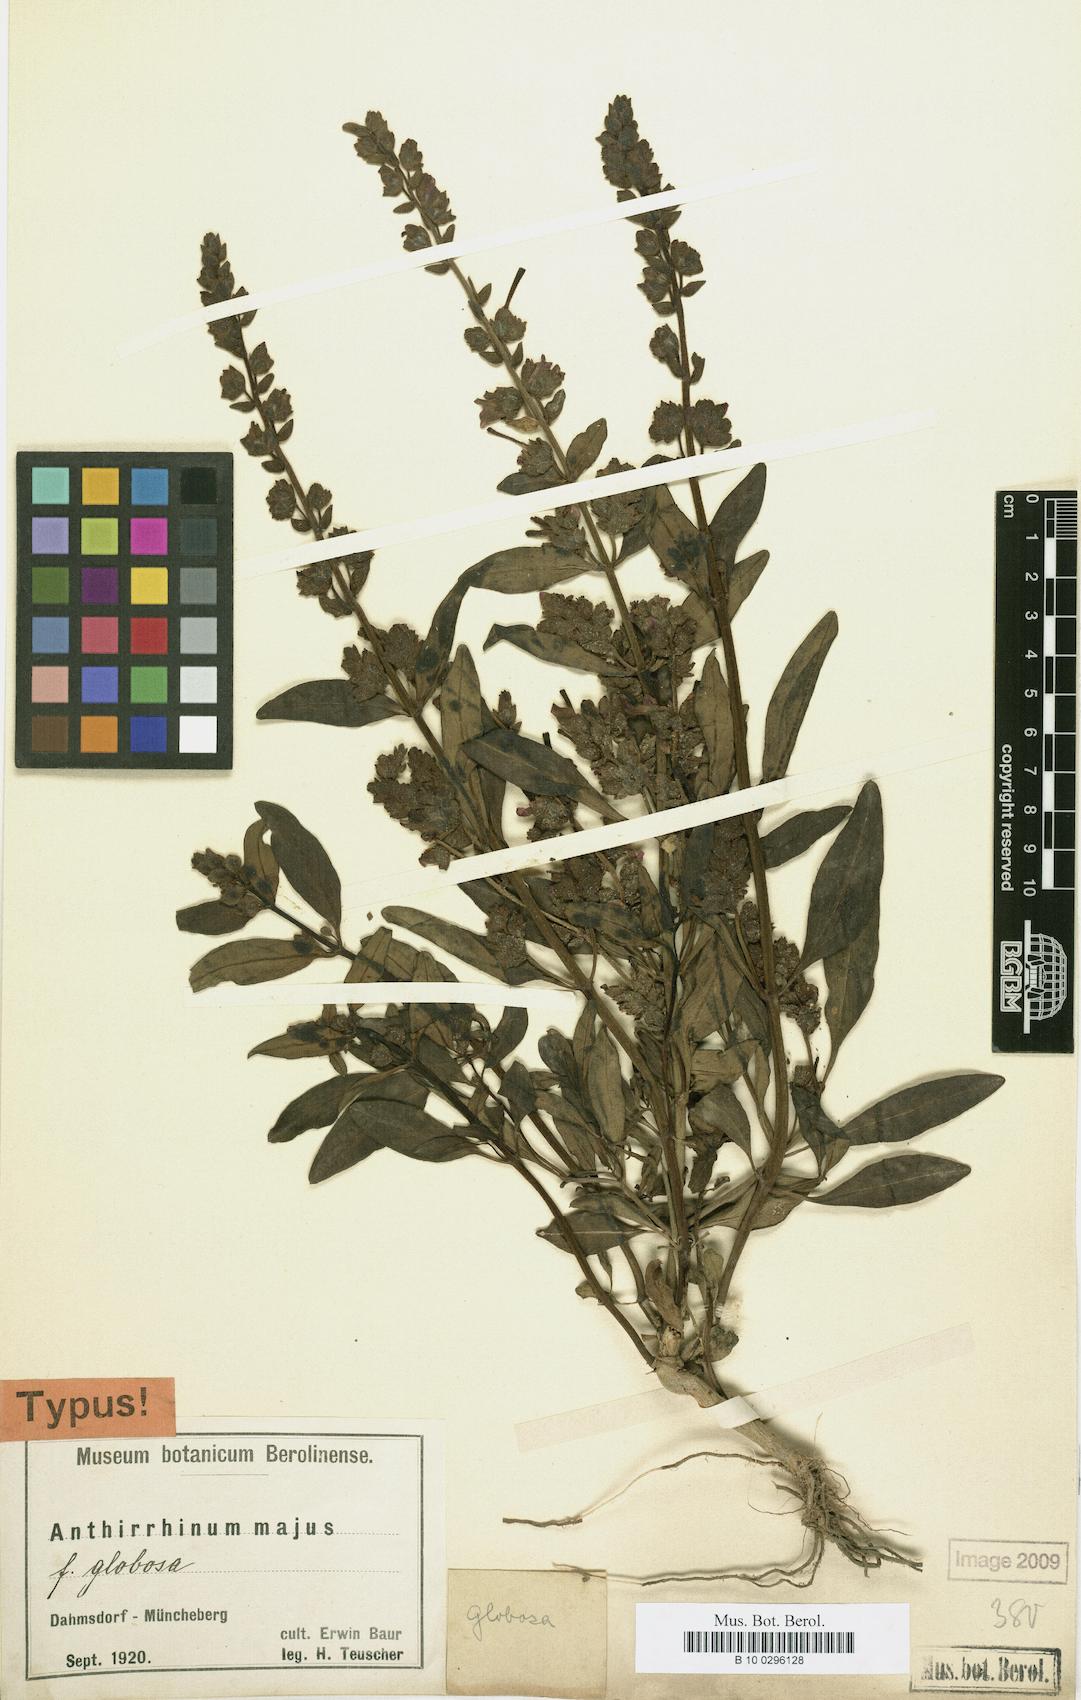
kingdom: Plantae
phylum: Tracheophyta
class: Magnoliopsida
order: Lamiales
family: Plantaginaceae
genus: Antirrhinum
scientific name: Antirrhinum majus
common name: Snapdragon
